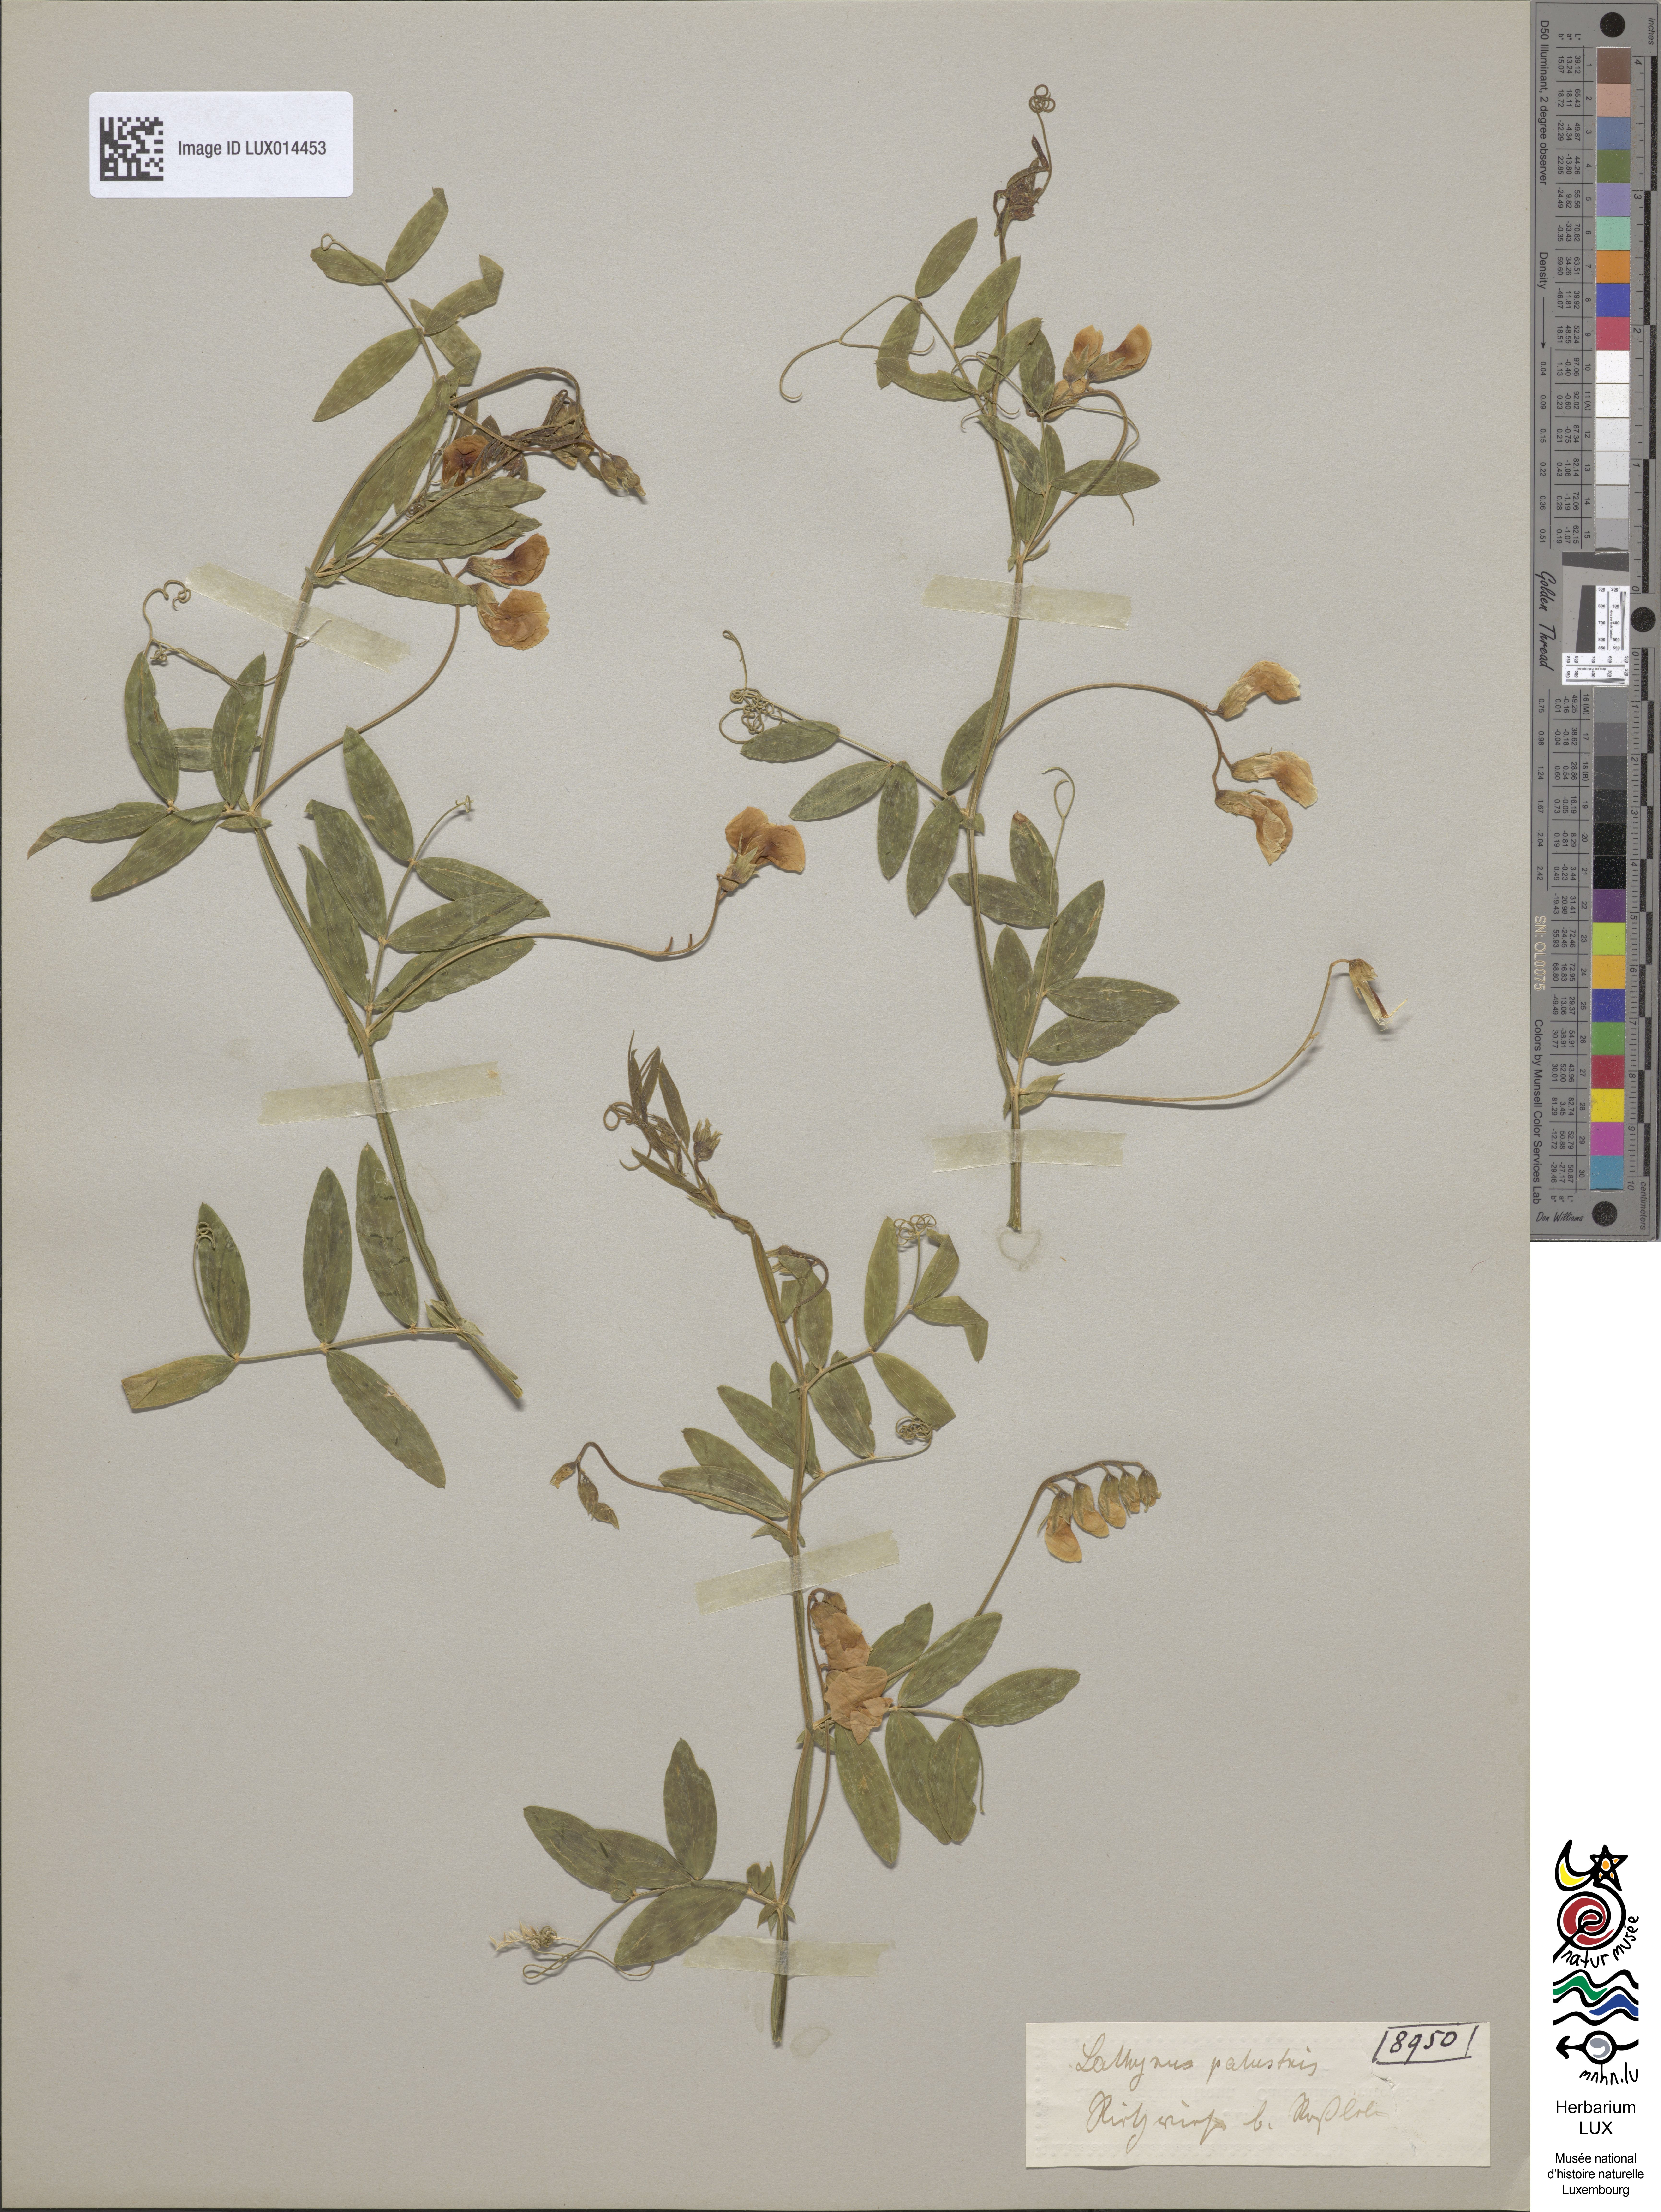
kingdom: Plantae
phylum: Tracheophyta
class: Magnoliopsida
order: Fabales
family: Fabaceae
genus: Lathyrus
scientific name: Lathyrus palustris
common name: Marsh pea
